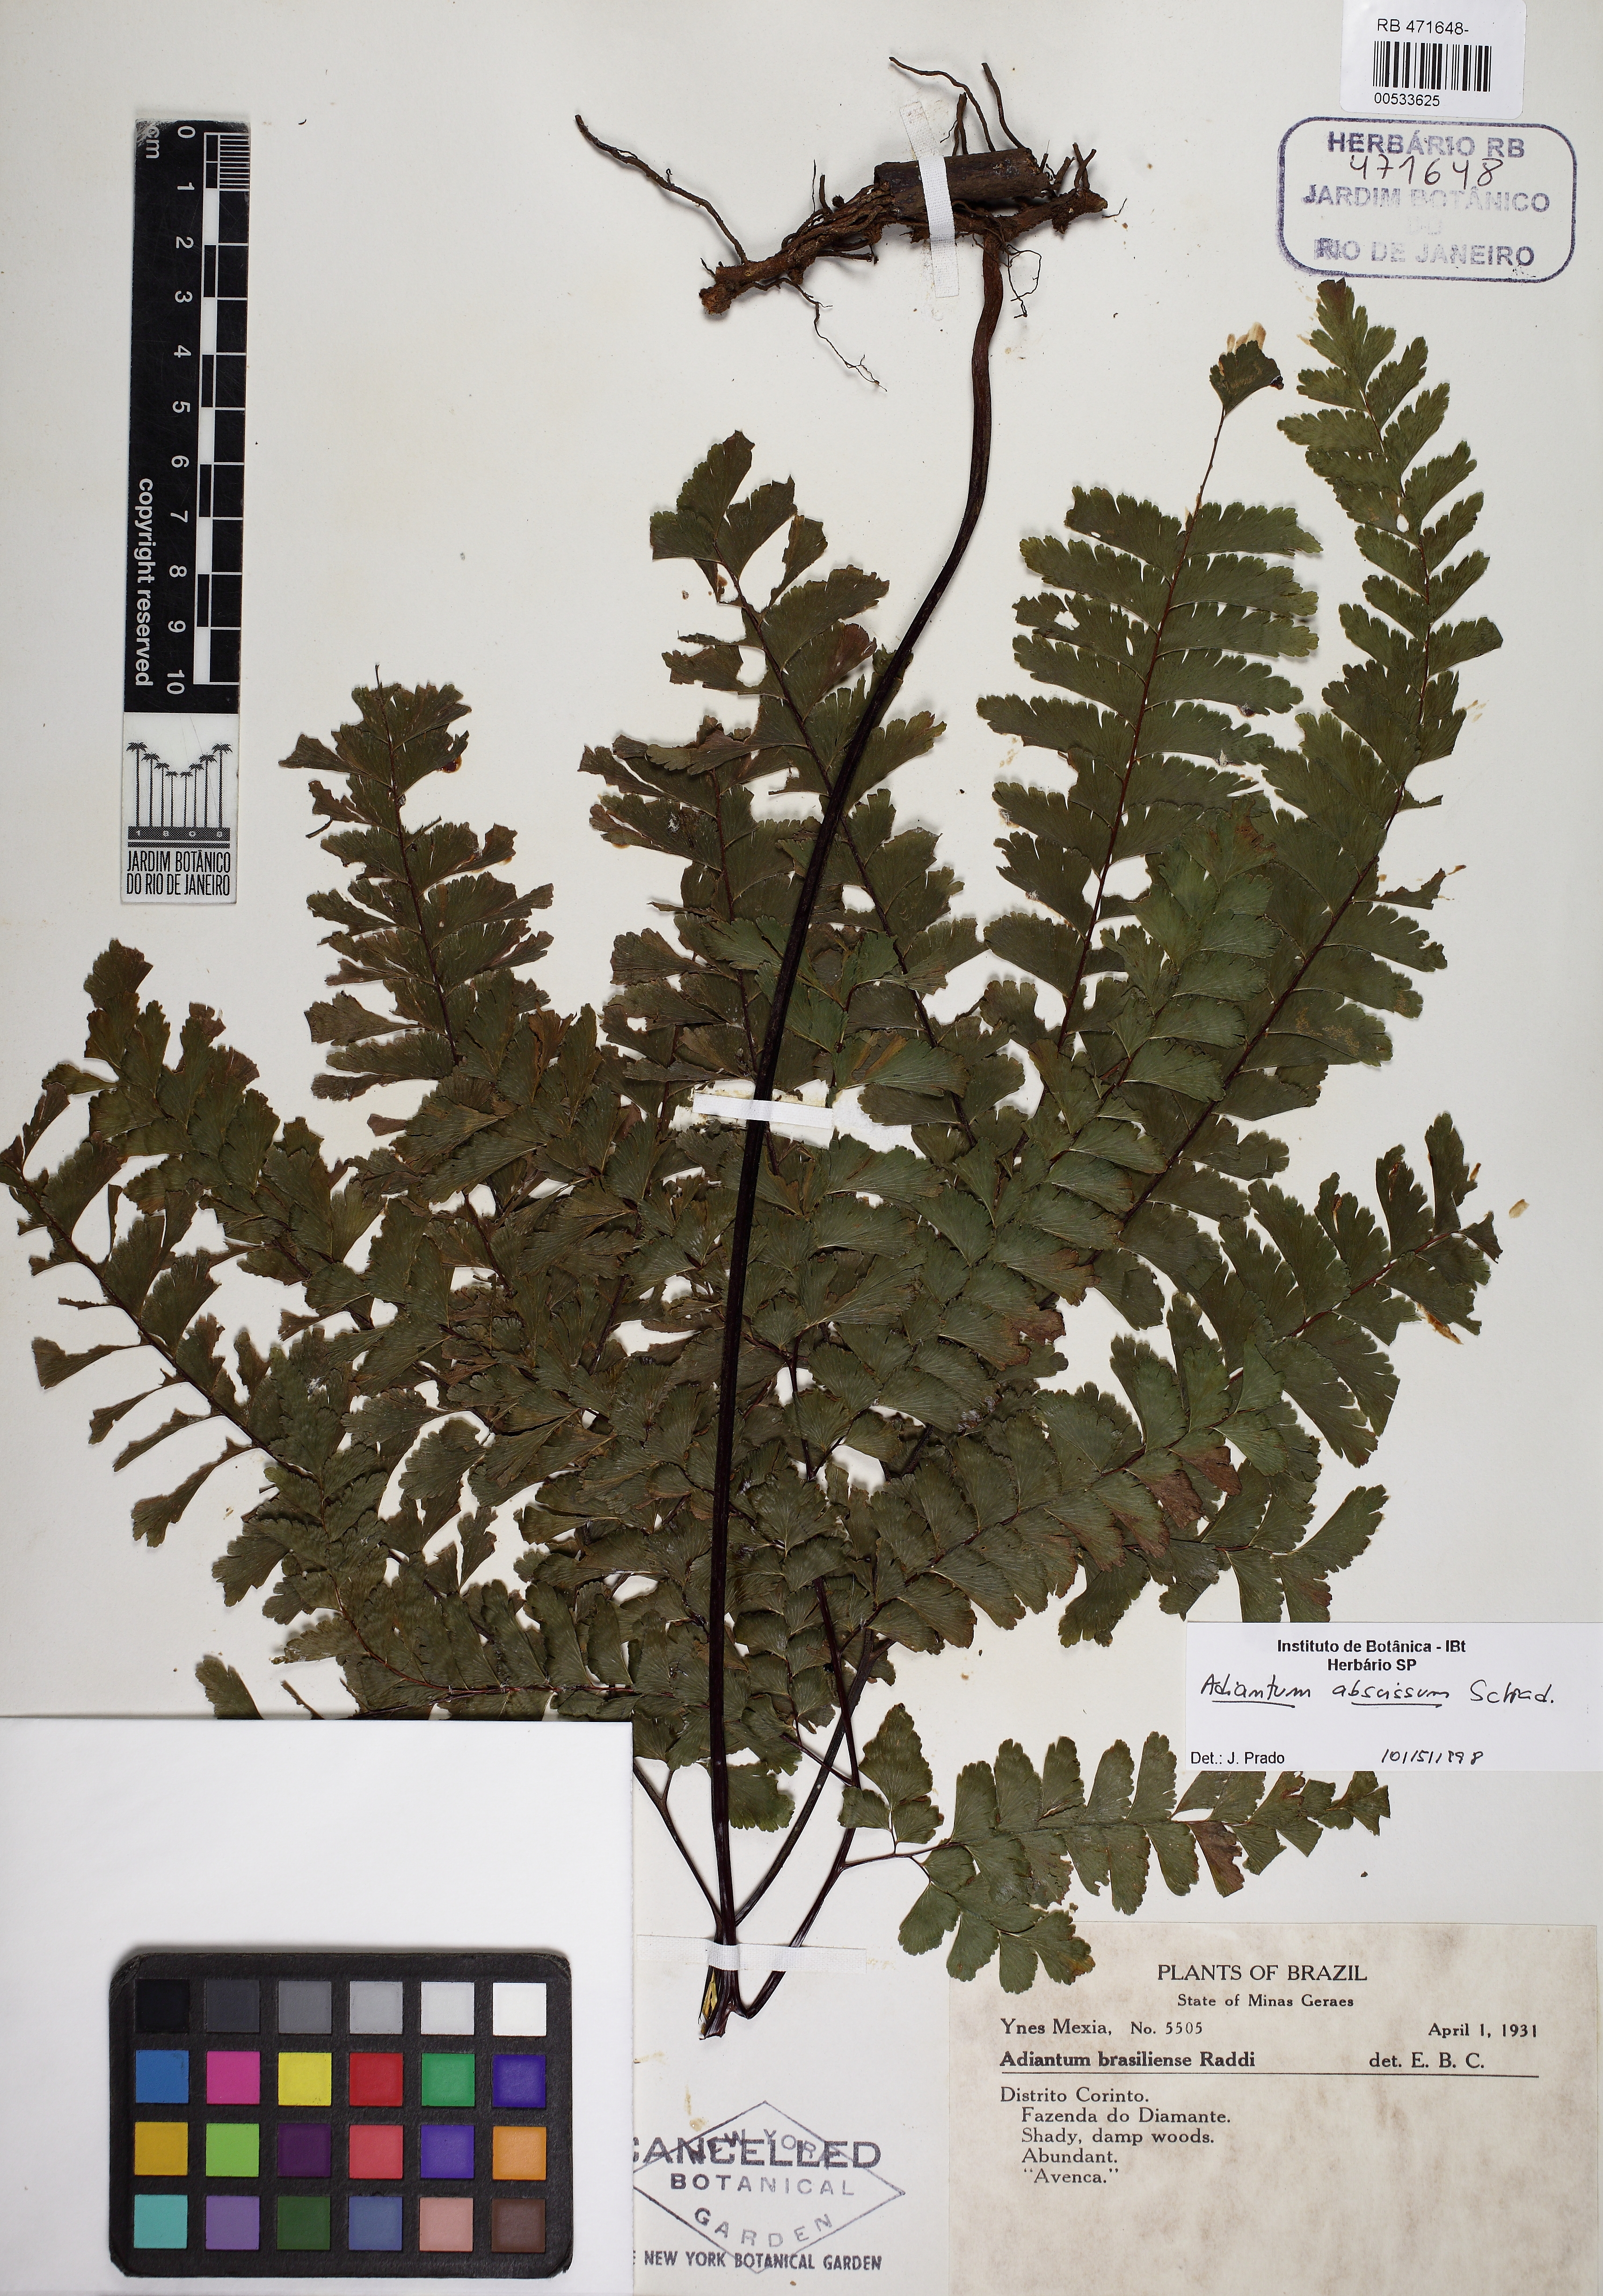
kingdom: Plantae
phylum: Tracheophyta
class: Polypodiopsida
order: Polypodiales
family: Pteridaceae
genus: Adiantum
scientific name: Adiantum abscissum
